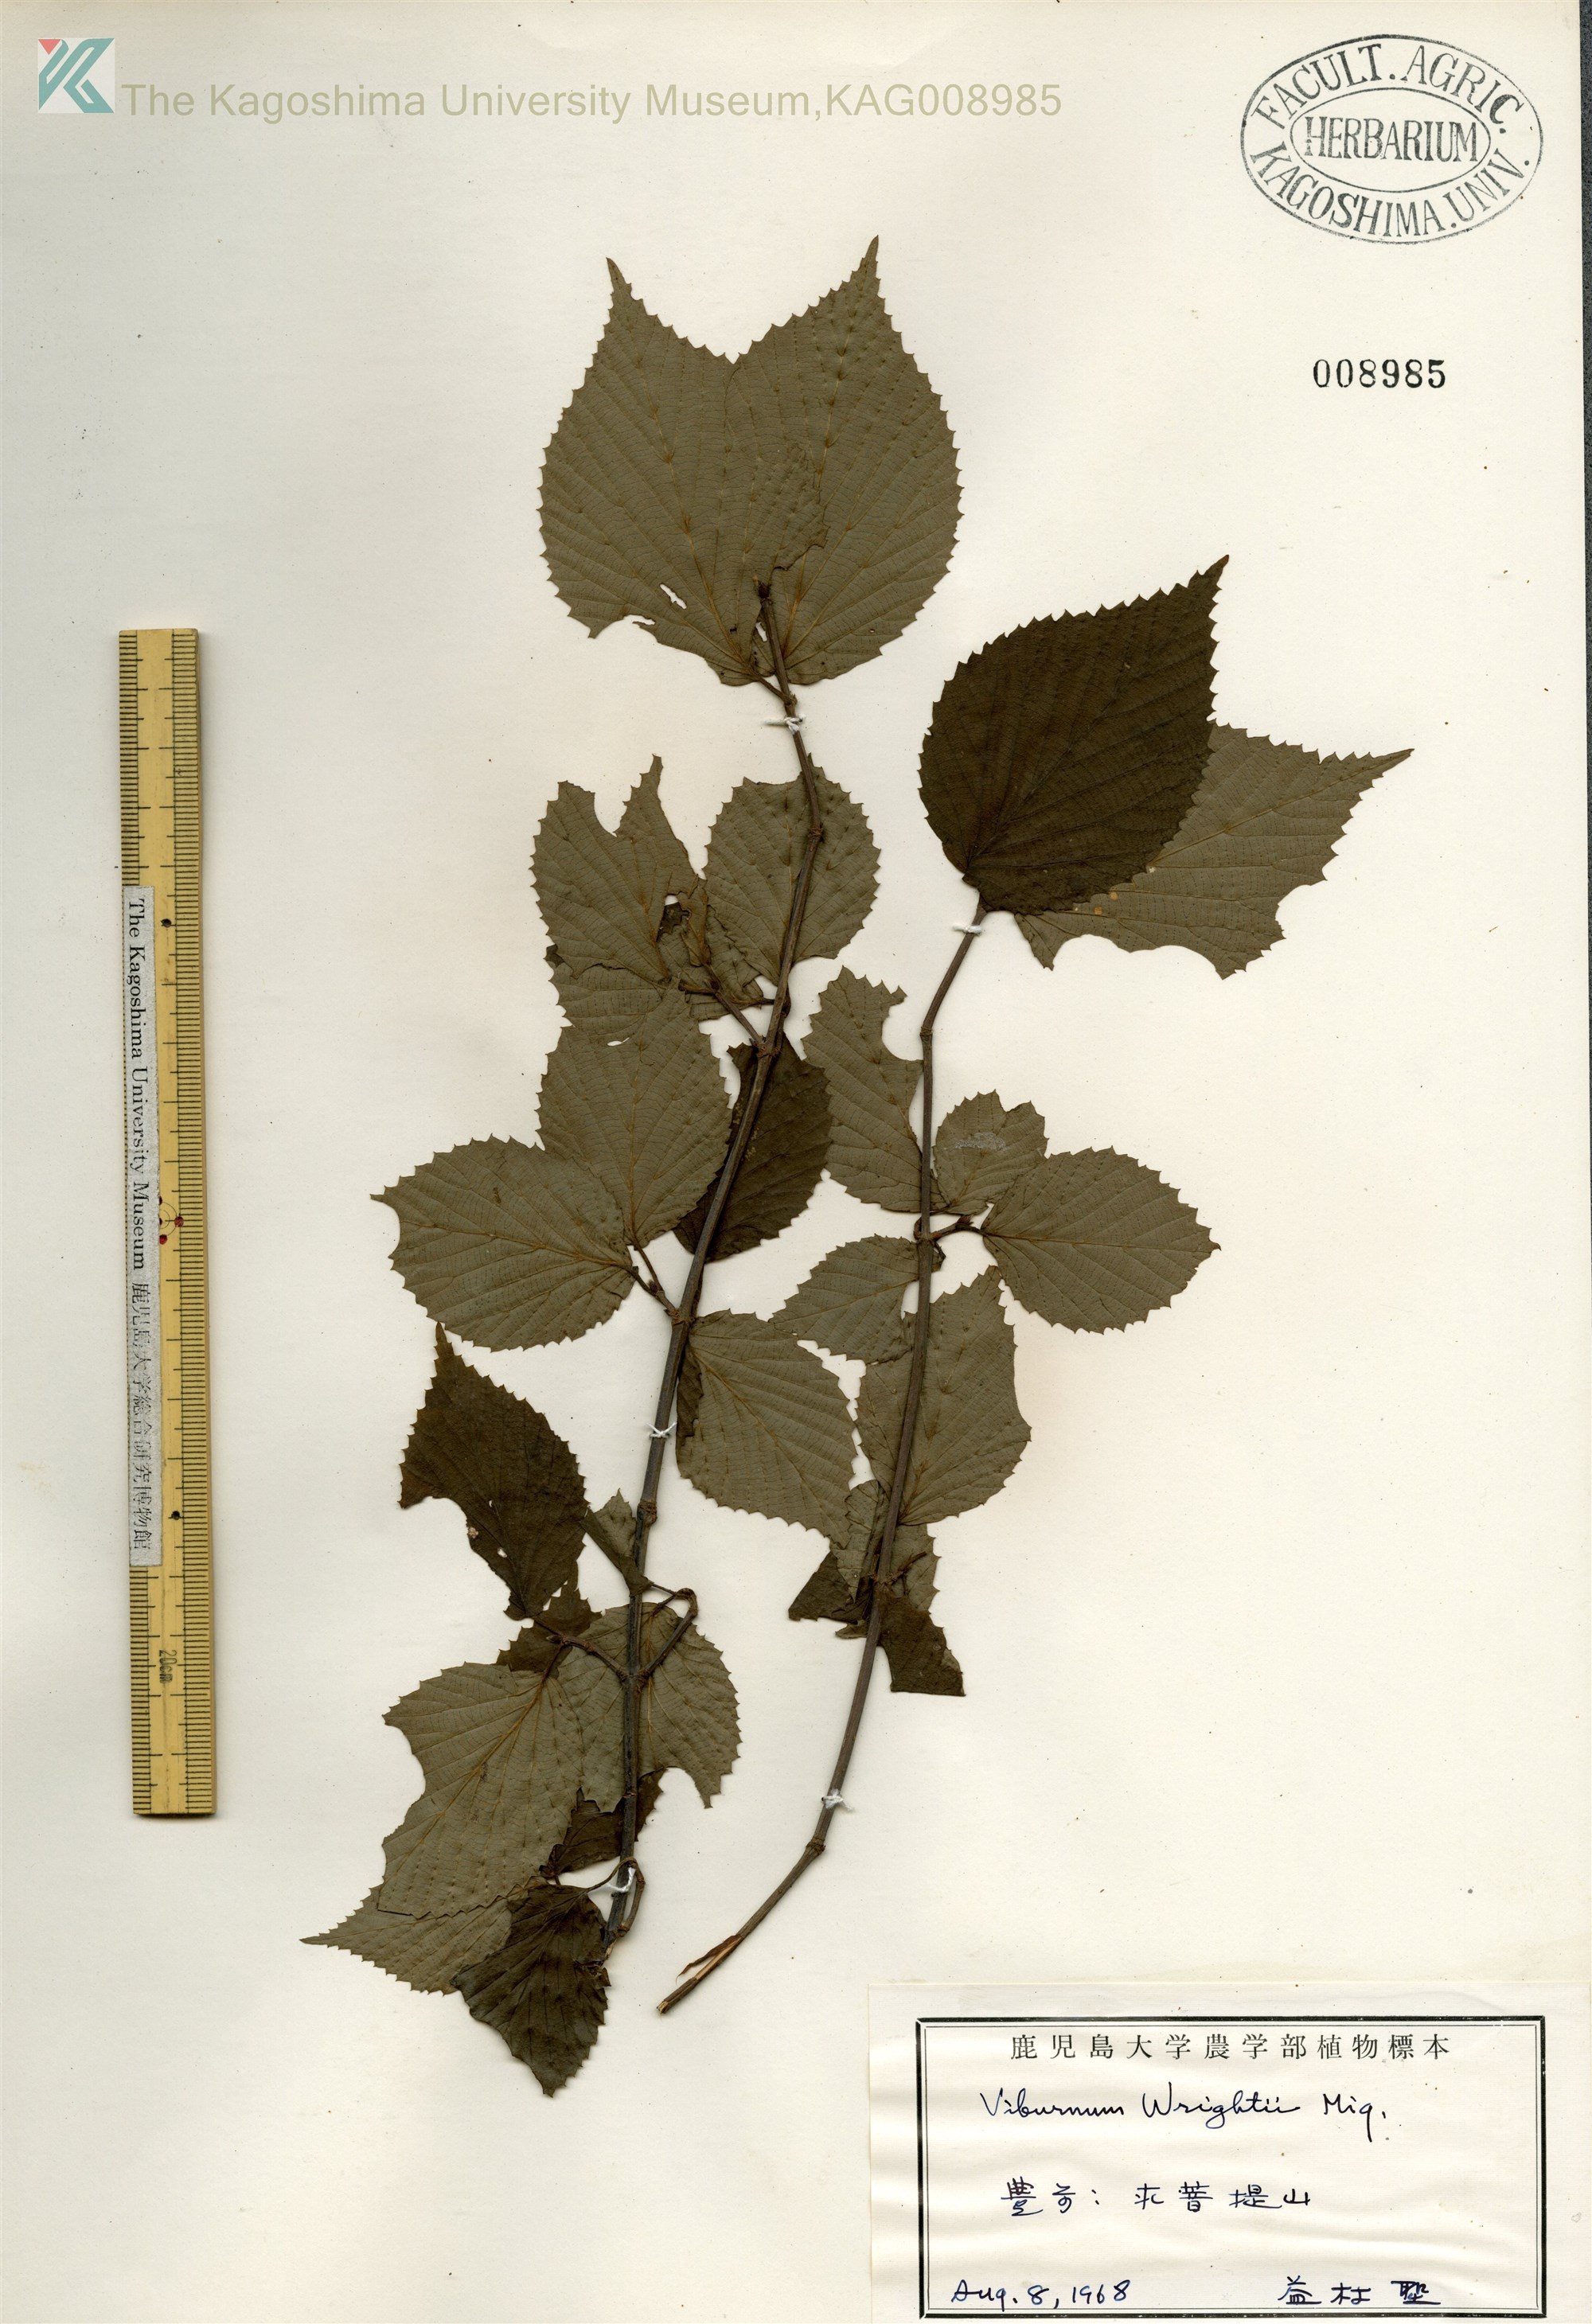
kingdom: Plantae
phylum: Tracheophyta
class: Magnoliopsida
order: Dipsacales
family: Viburnaceae
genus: Viburnum
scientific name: Viburnum wrightii
